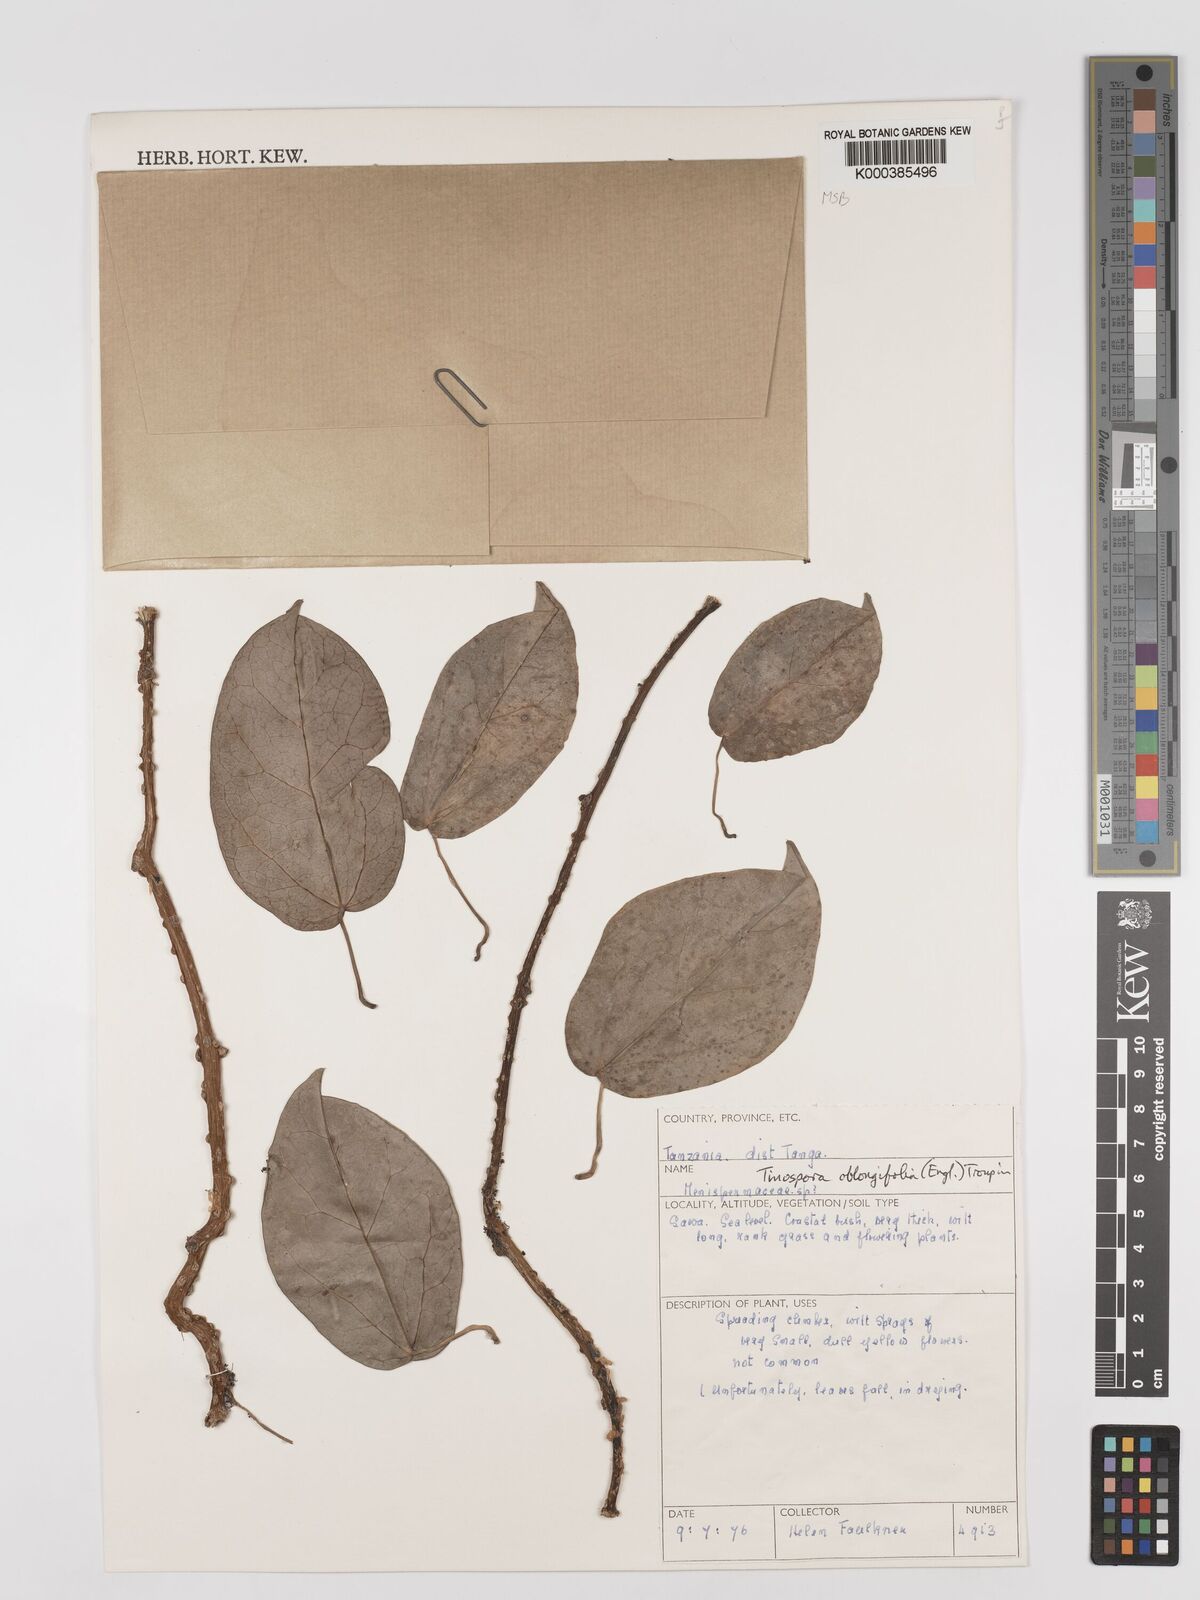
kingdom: Plantae
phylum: Tracheophyta
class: Magnoliopsida
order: Ranunculales
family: Menispermaceae
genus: Tinospora
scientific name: Tinospora oblongifolia
